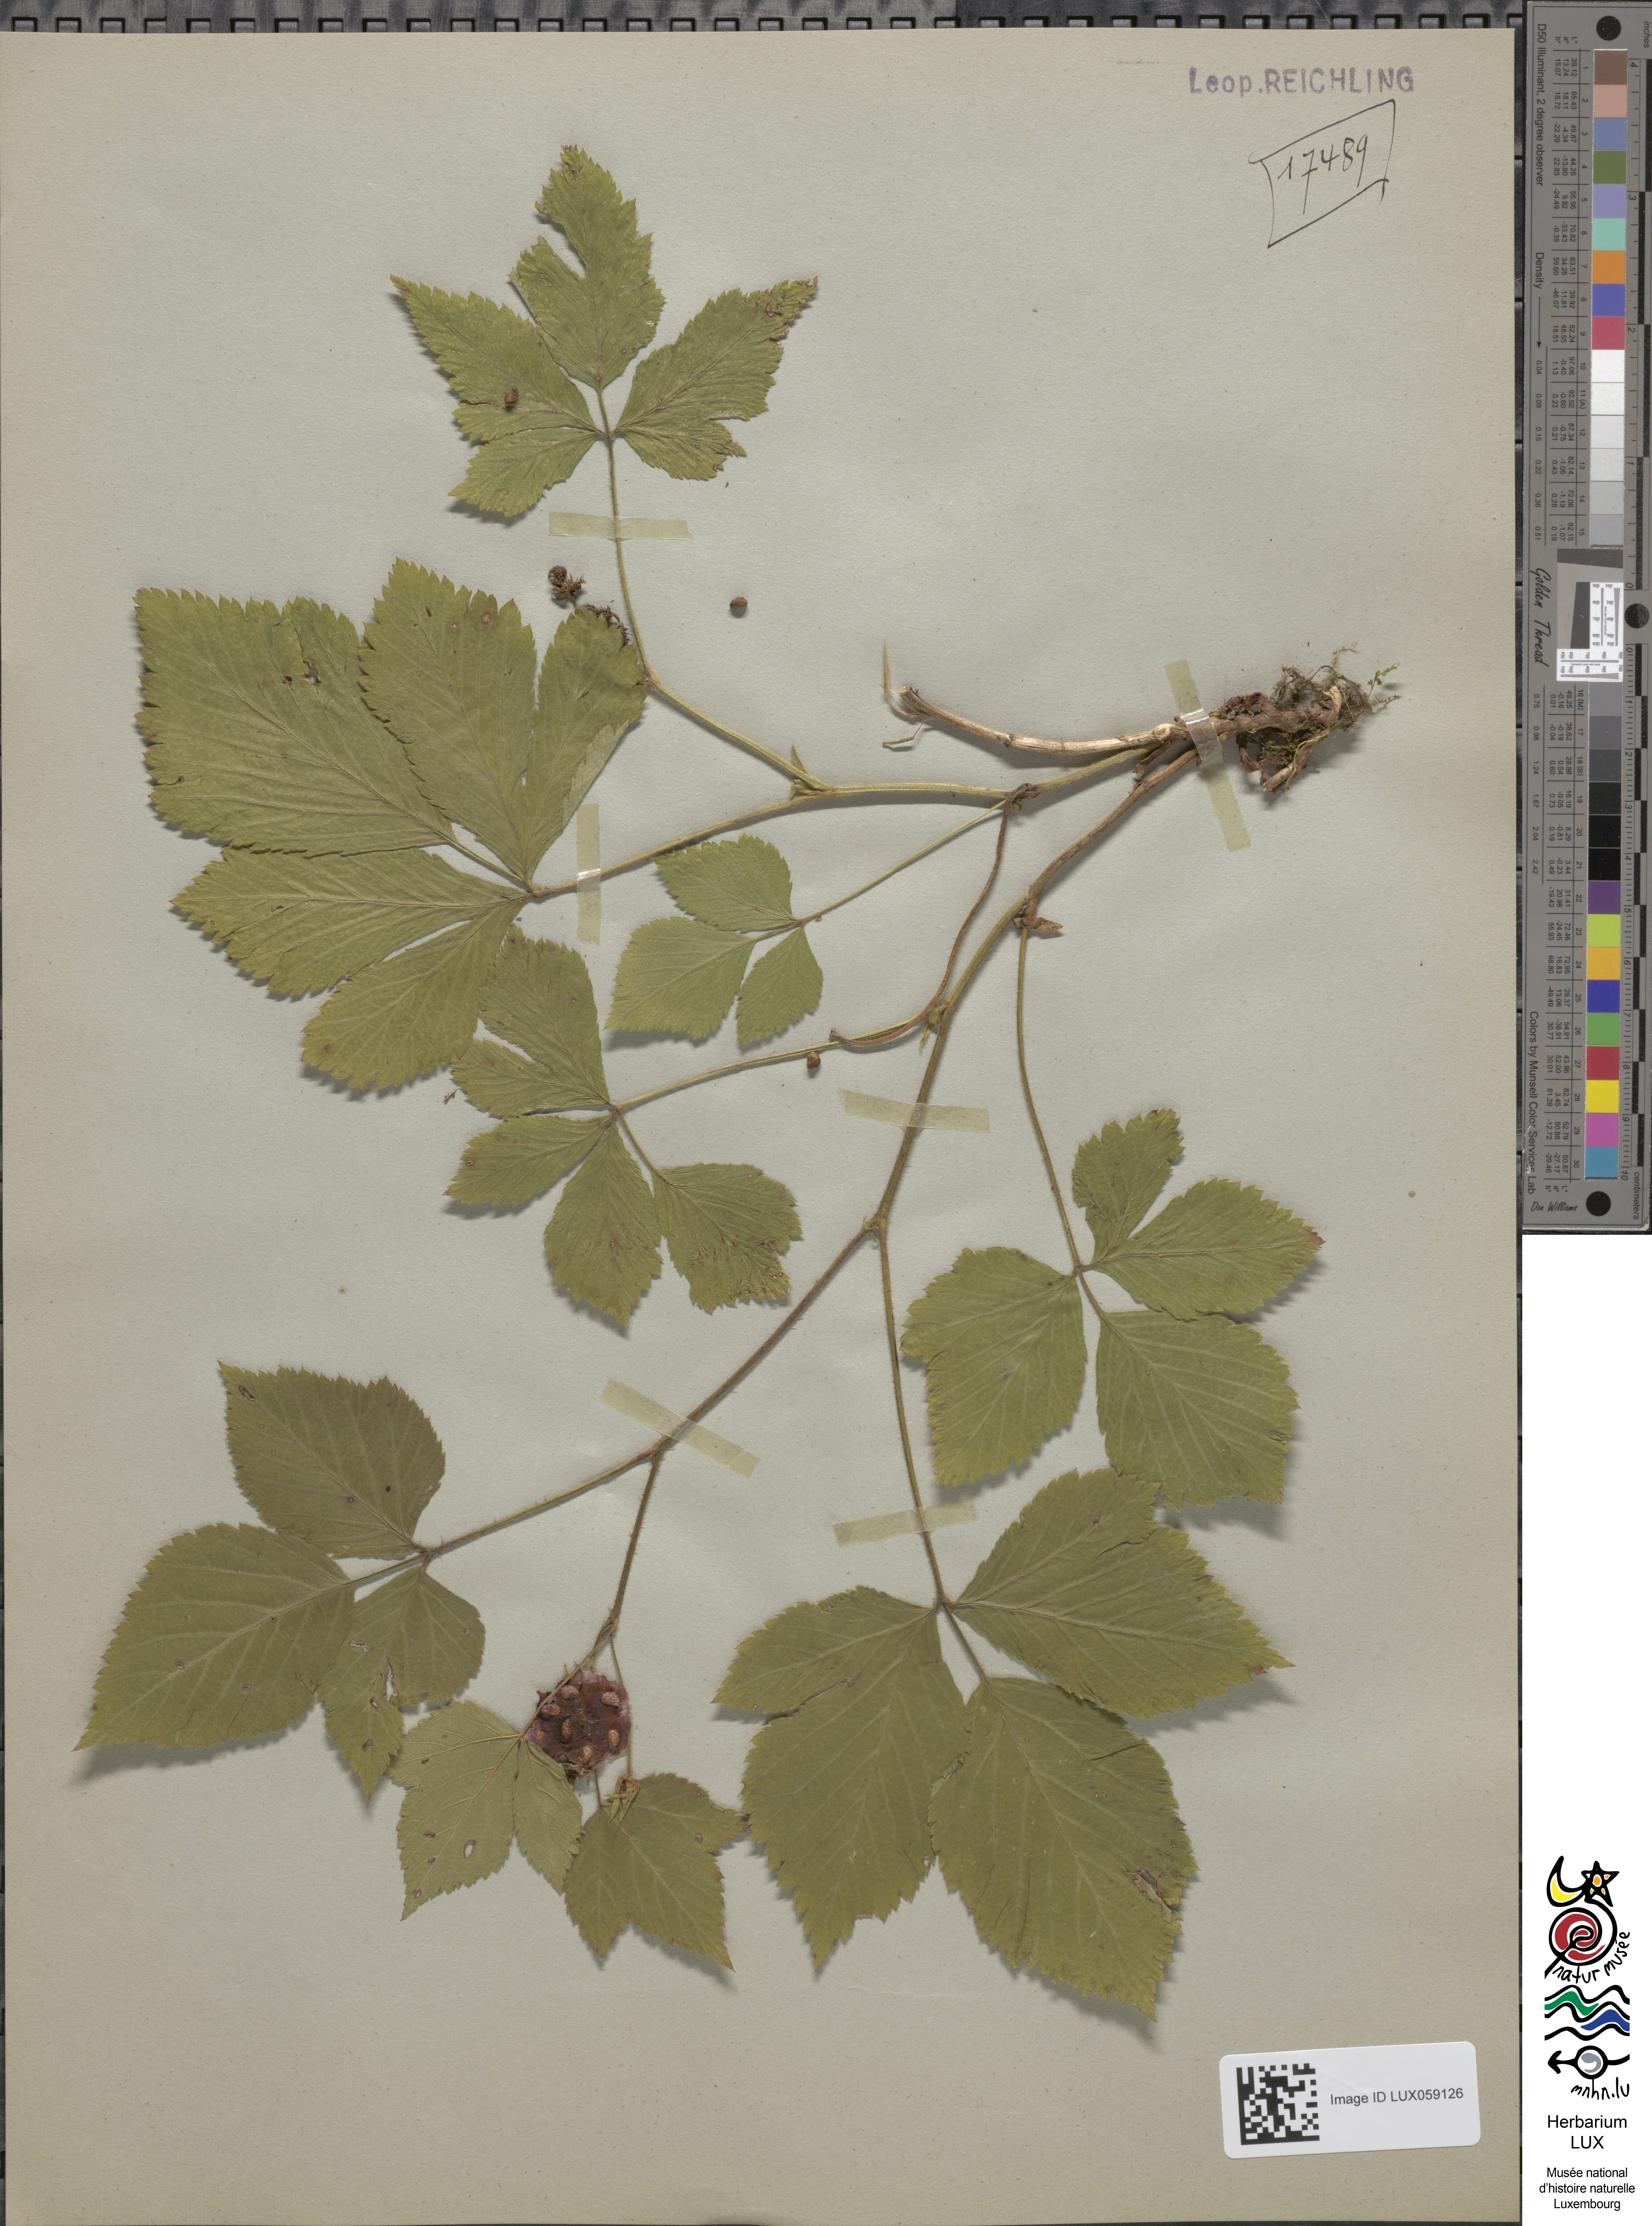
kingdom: Plantae
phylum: Tracheophyta
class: Magnoliopsida
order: Rosales
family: Rosaceae
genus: Rubus
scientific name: Rubus saxatilis
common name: Stone bramble
